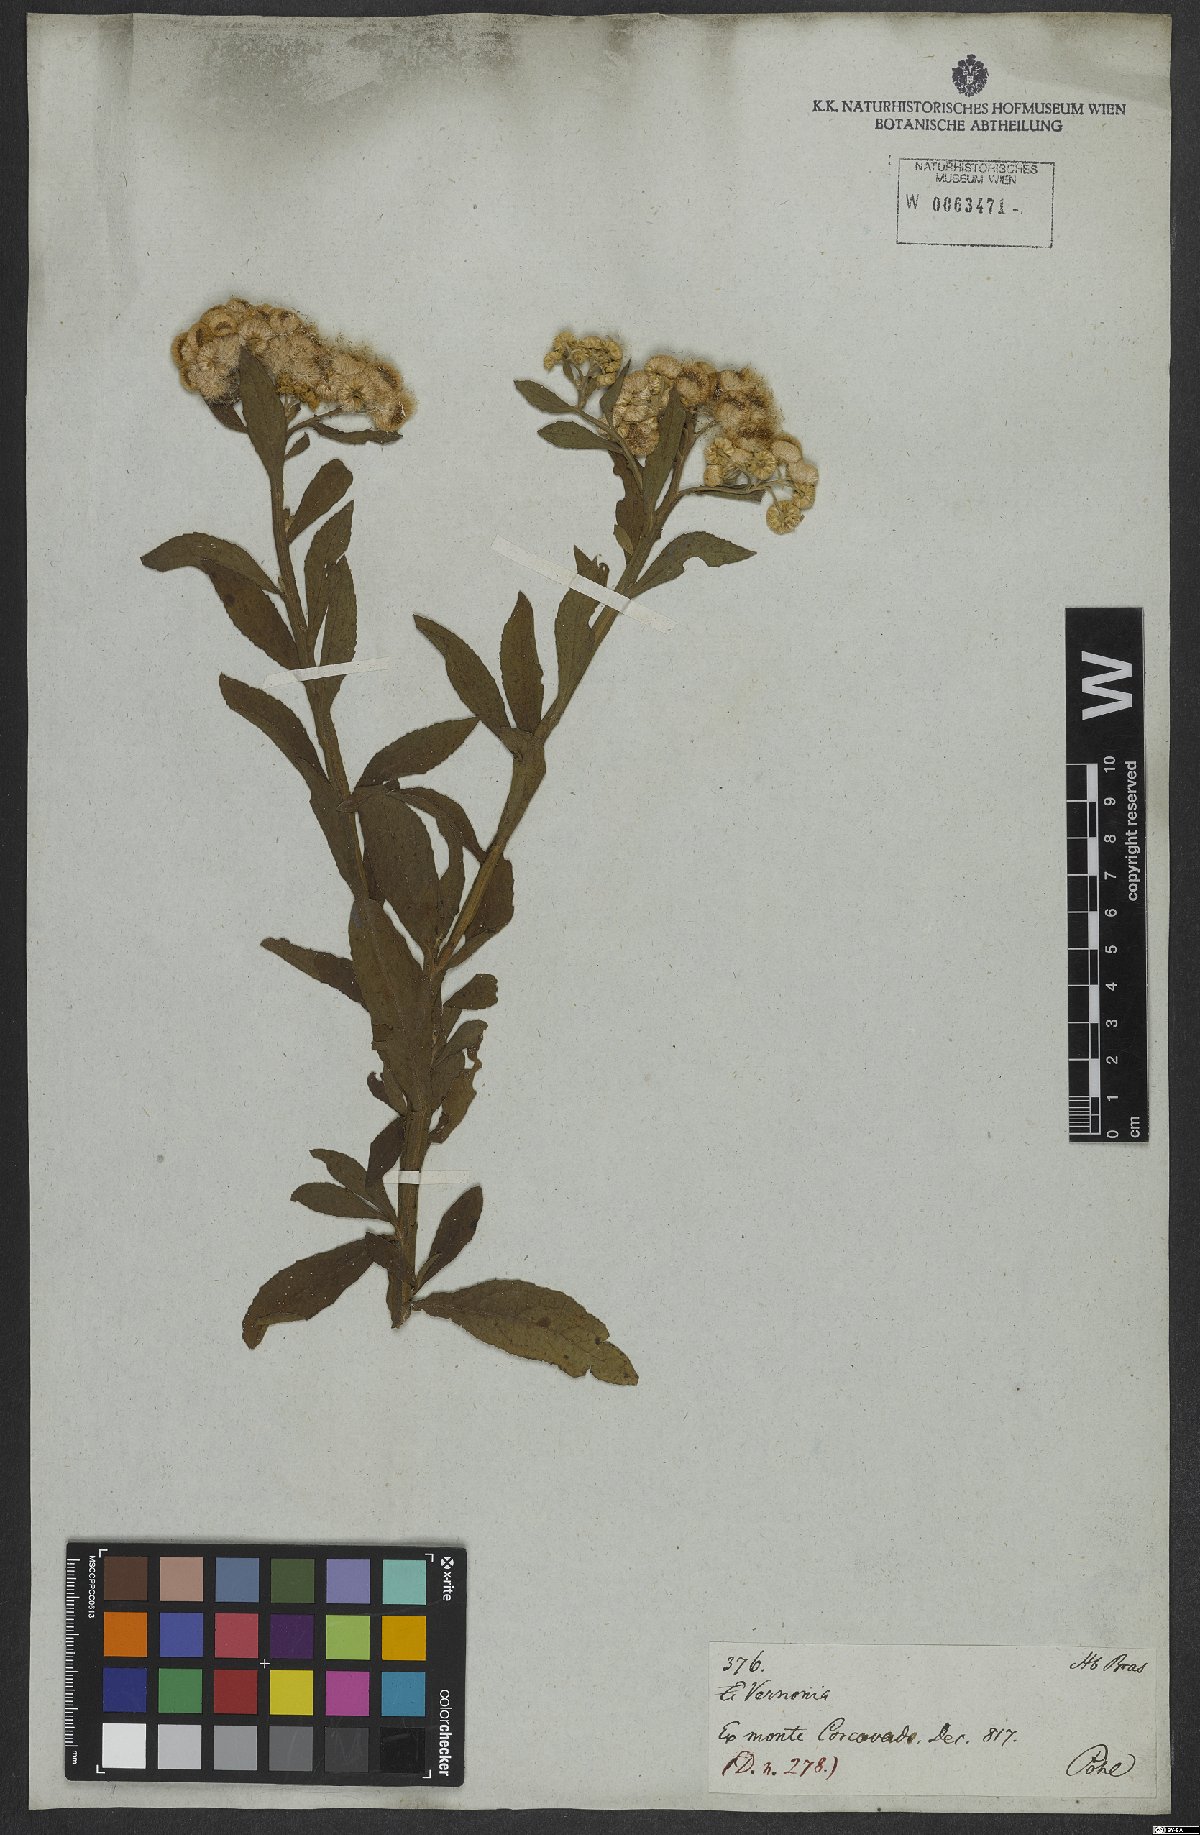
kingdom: Plantae
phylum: Tracheophyta
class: Magnoliopsida
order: Asterales
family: Asteraceae
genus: Pluchea
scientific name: Pluchea sagittalis
